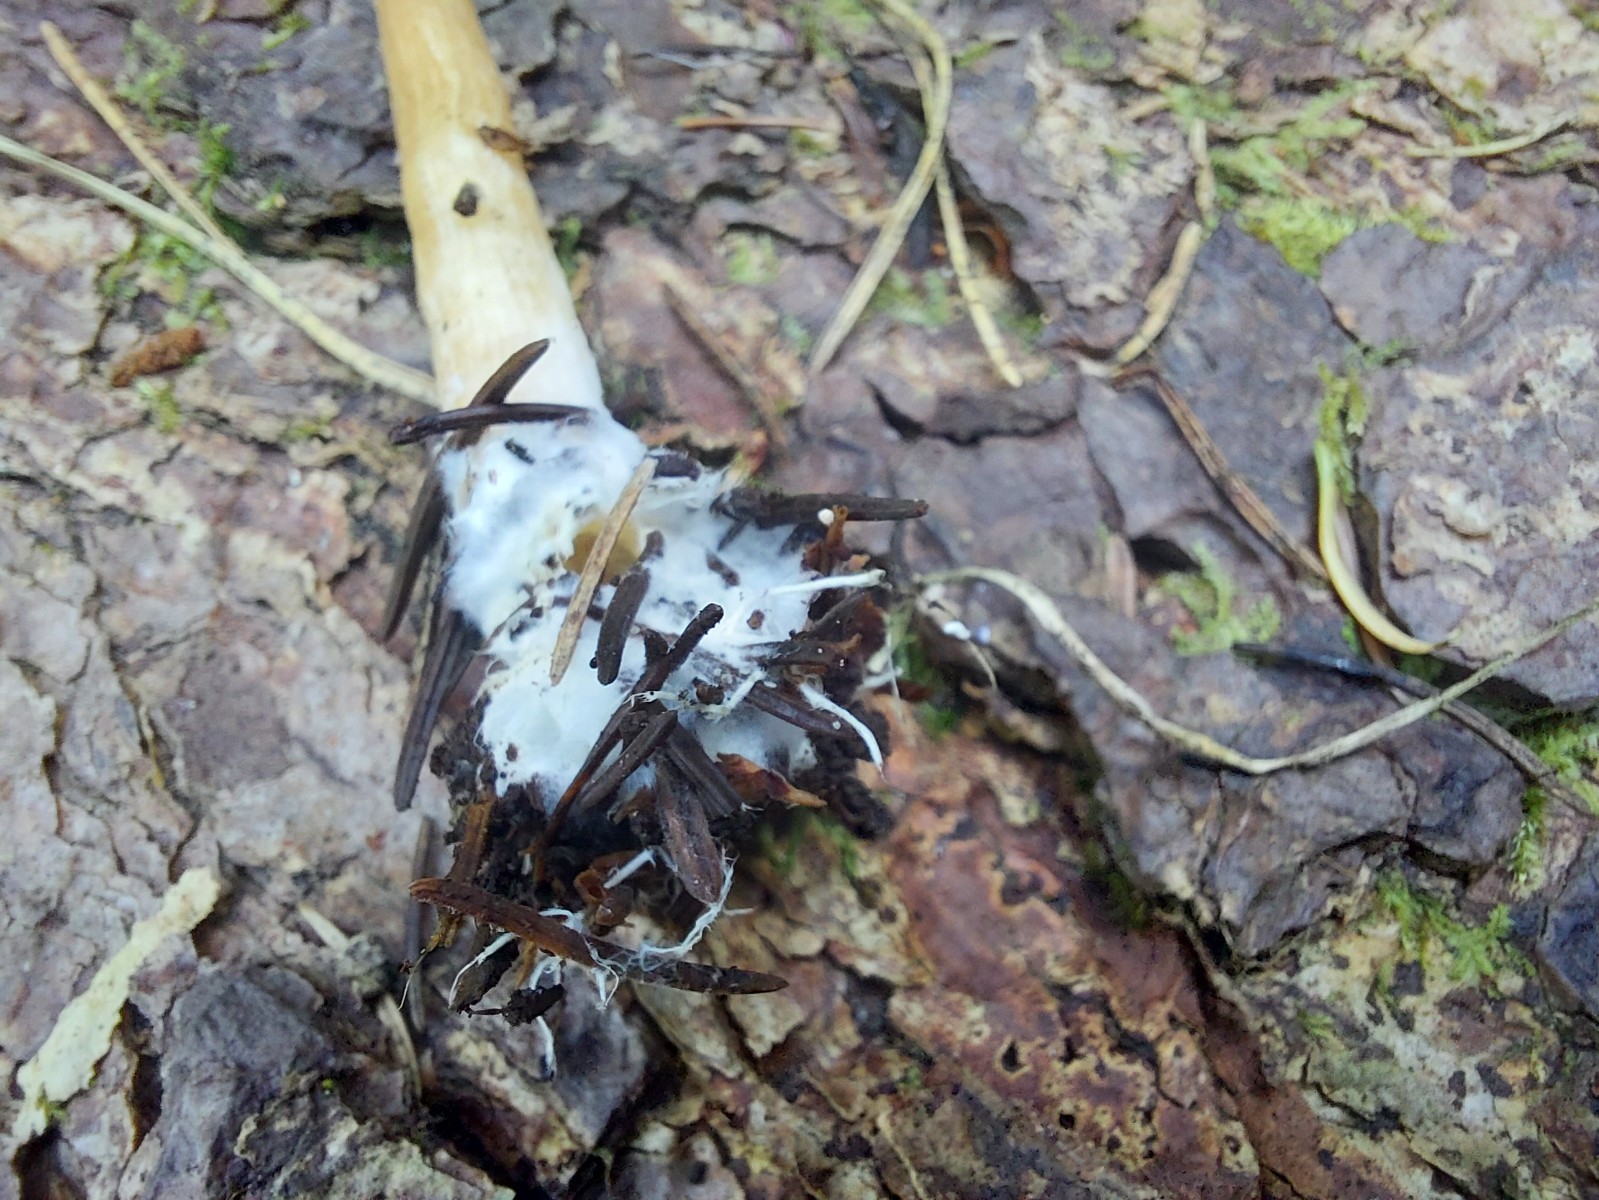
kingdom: Fungi
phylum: Basidiomycota
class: Agaricomycetes
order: Agaricales
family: Tricholomataceae
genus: Infundibulicybe
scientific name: Infundibulicybe
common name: tragthat
